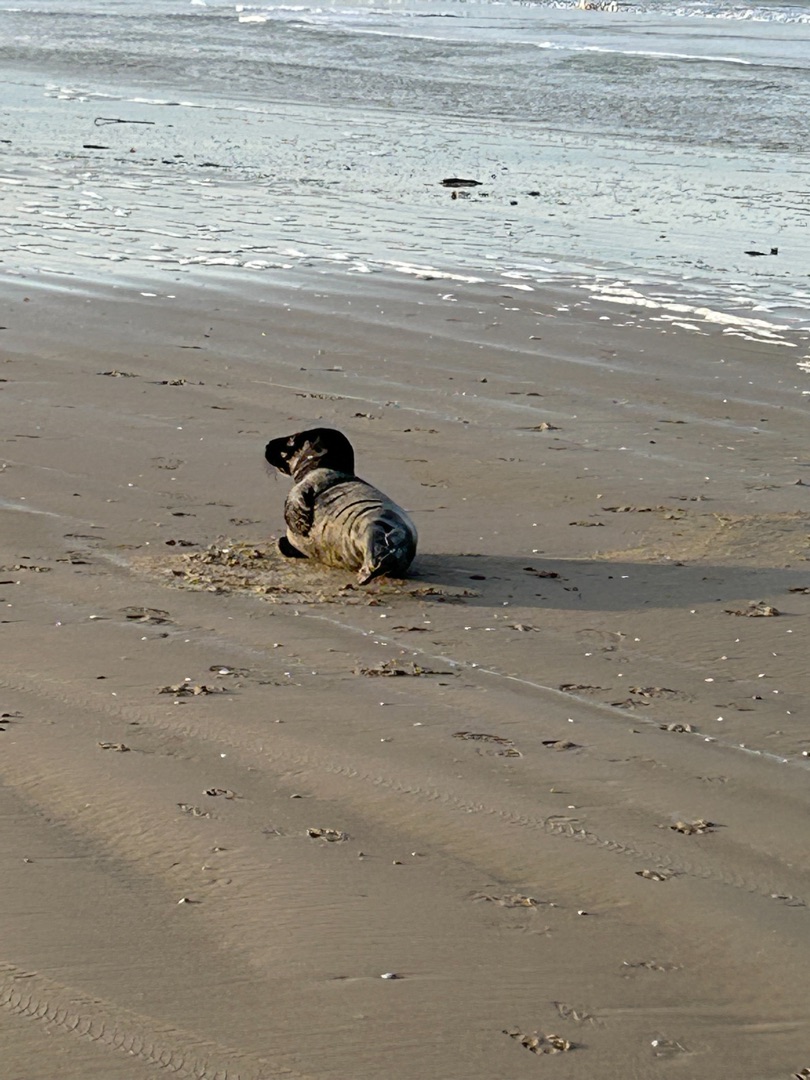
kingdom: Animalia
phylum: Chordata
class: Mammalia
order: Carnivora
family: Phocidae
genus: Halichoerus
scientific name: Halichoerus grypus
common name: Gråsæl
